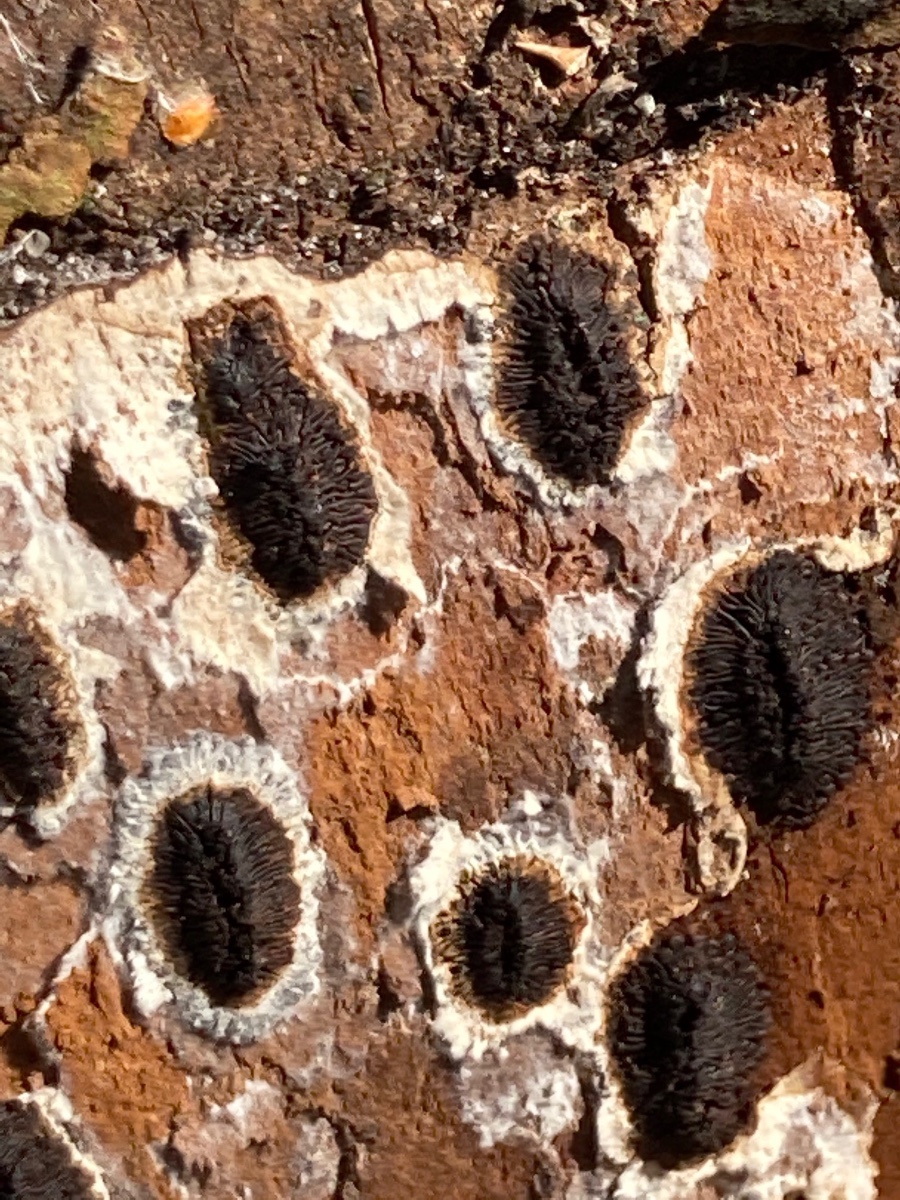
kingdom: Fungi
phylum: Ascomycota
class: Sordariomycetes
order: Calosphaeriales
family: Calosphaeriaceae
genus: Calosphaeria
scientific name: Calosphaeria pulchella
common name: smuk slyngkerne
